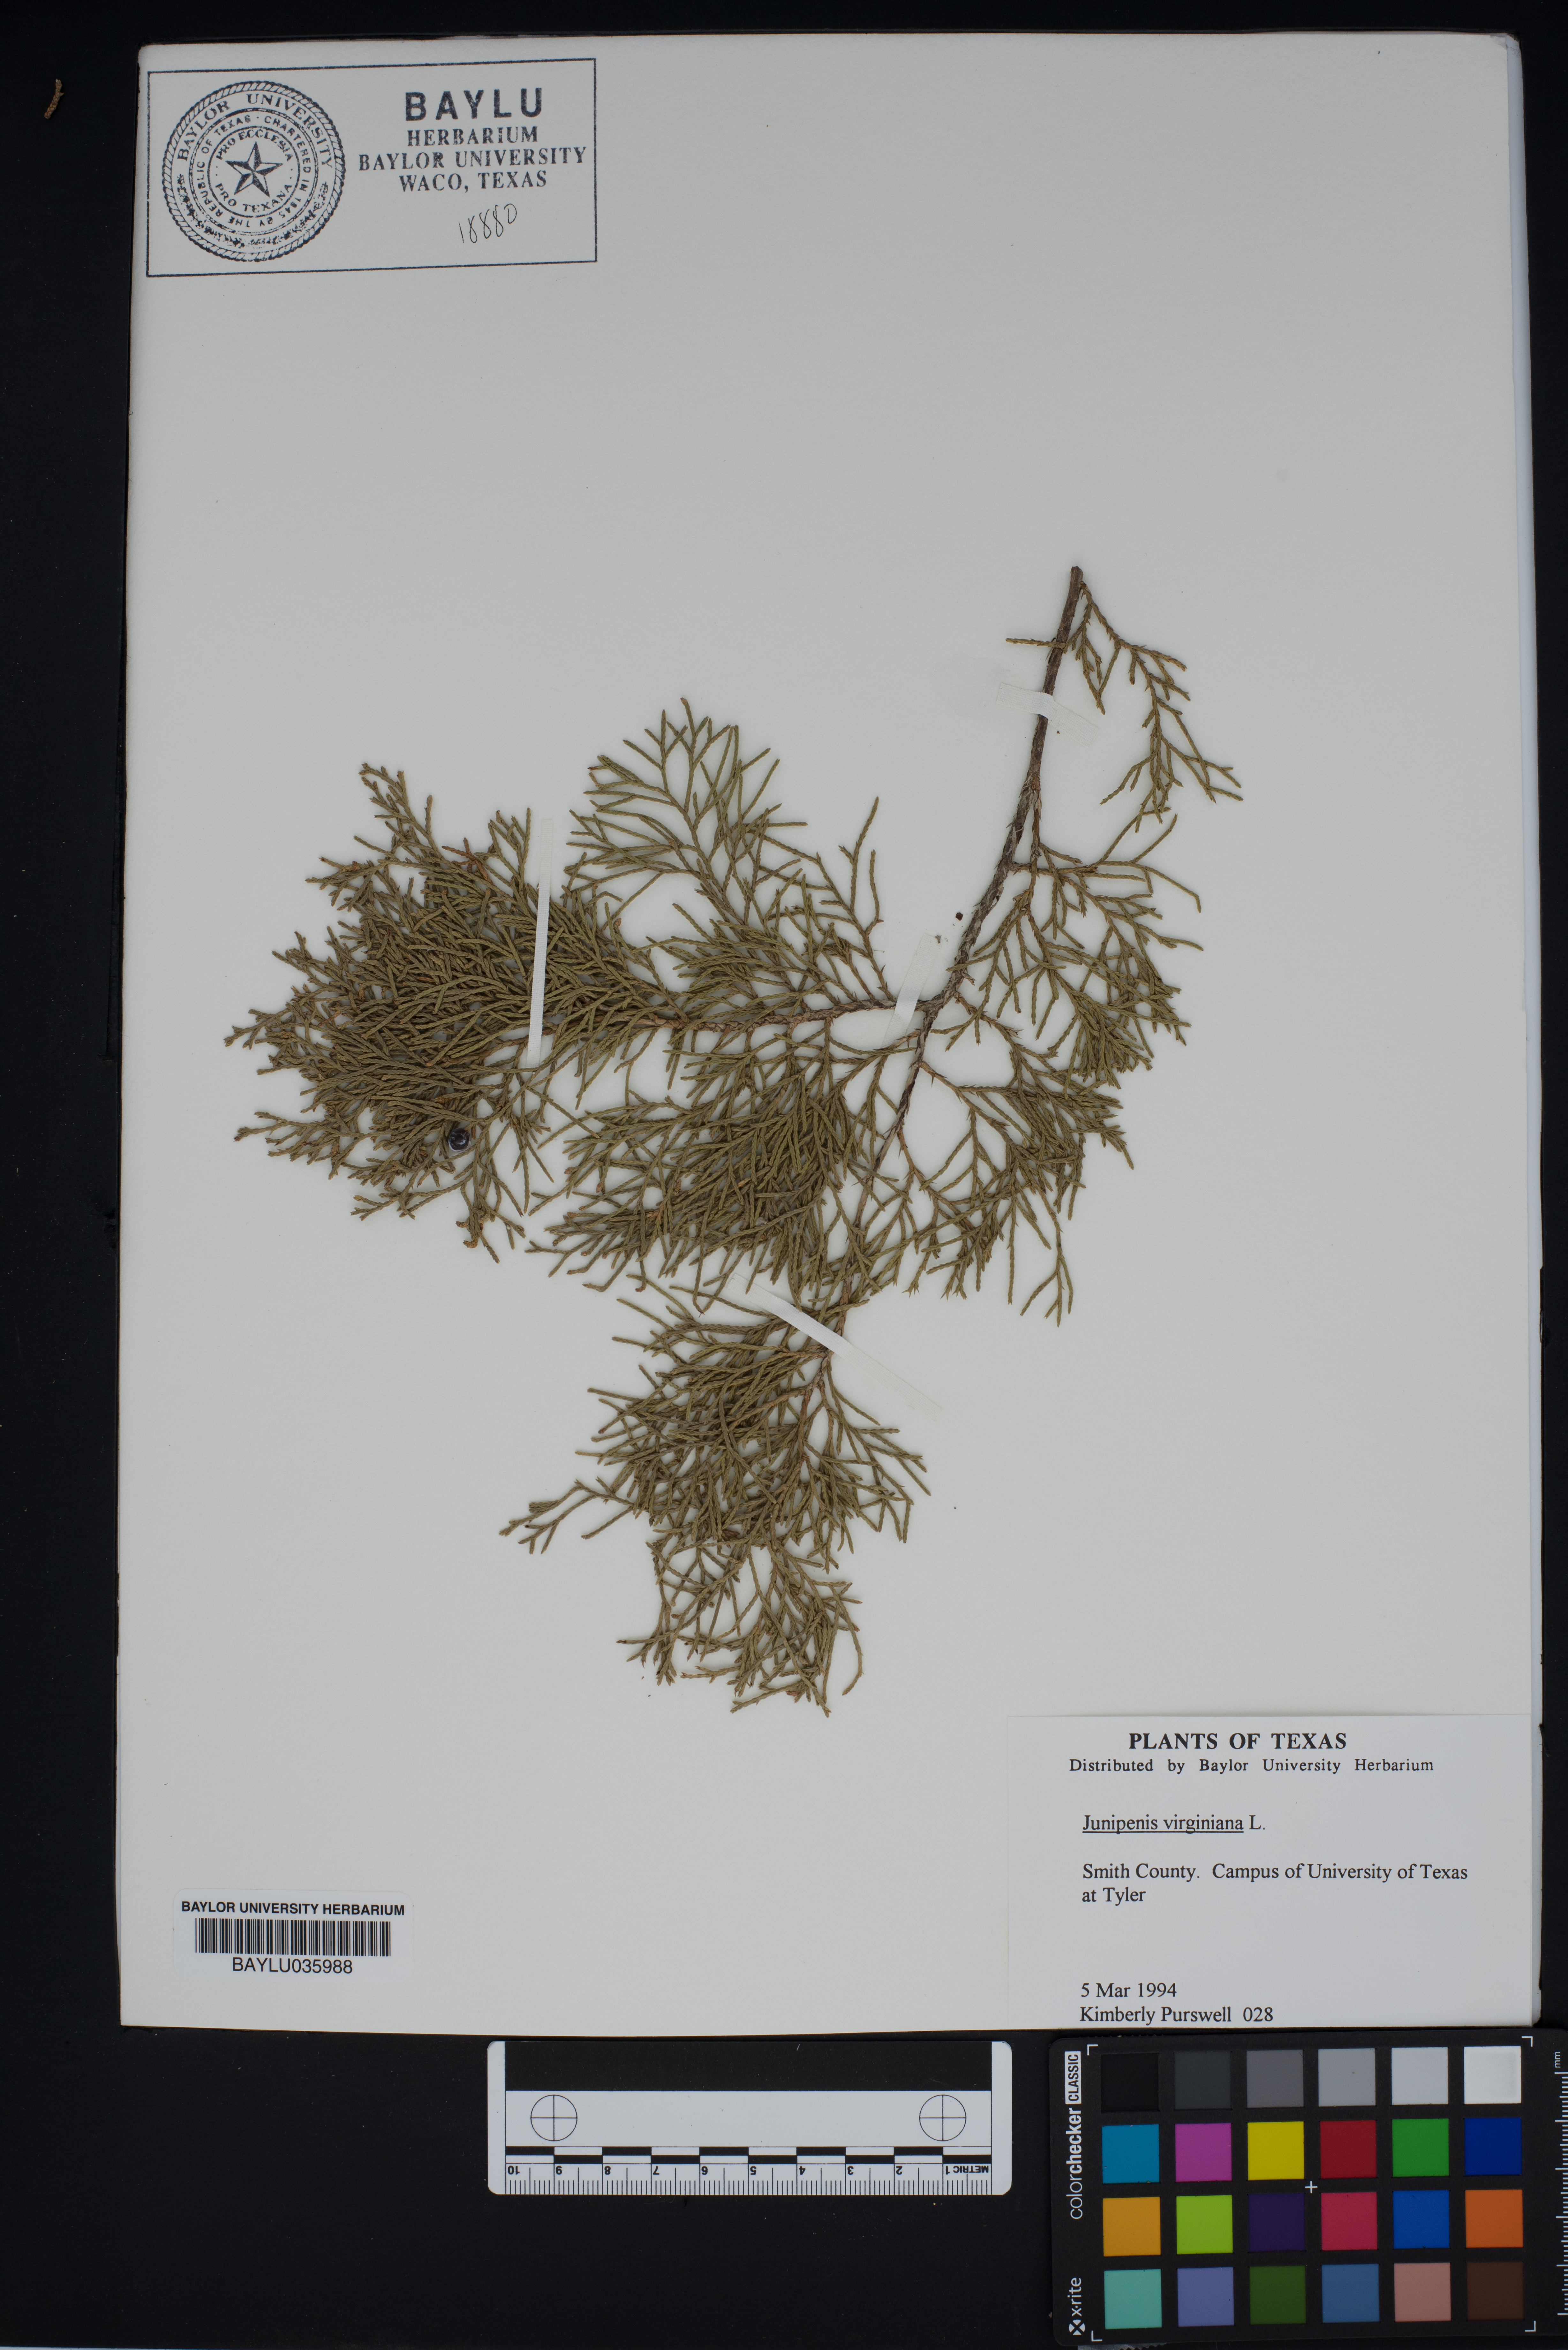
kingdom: Plantae
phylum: Tracheophyta
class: Pinopsida
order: Pinales
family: Cupressaceae
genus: Juniperus
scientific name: Juniperus virginiana
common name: Red juniper
